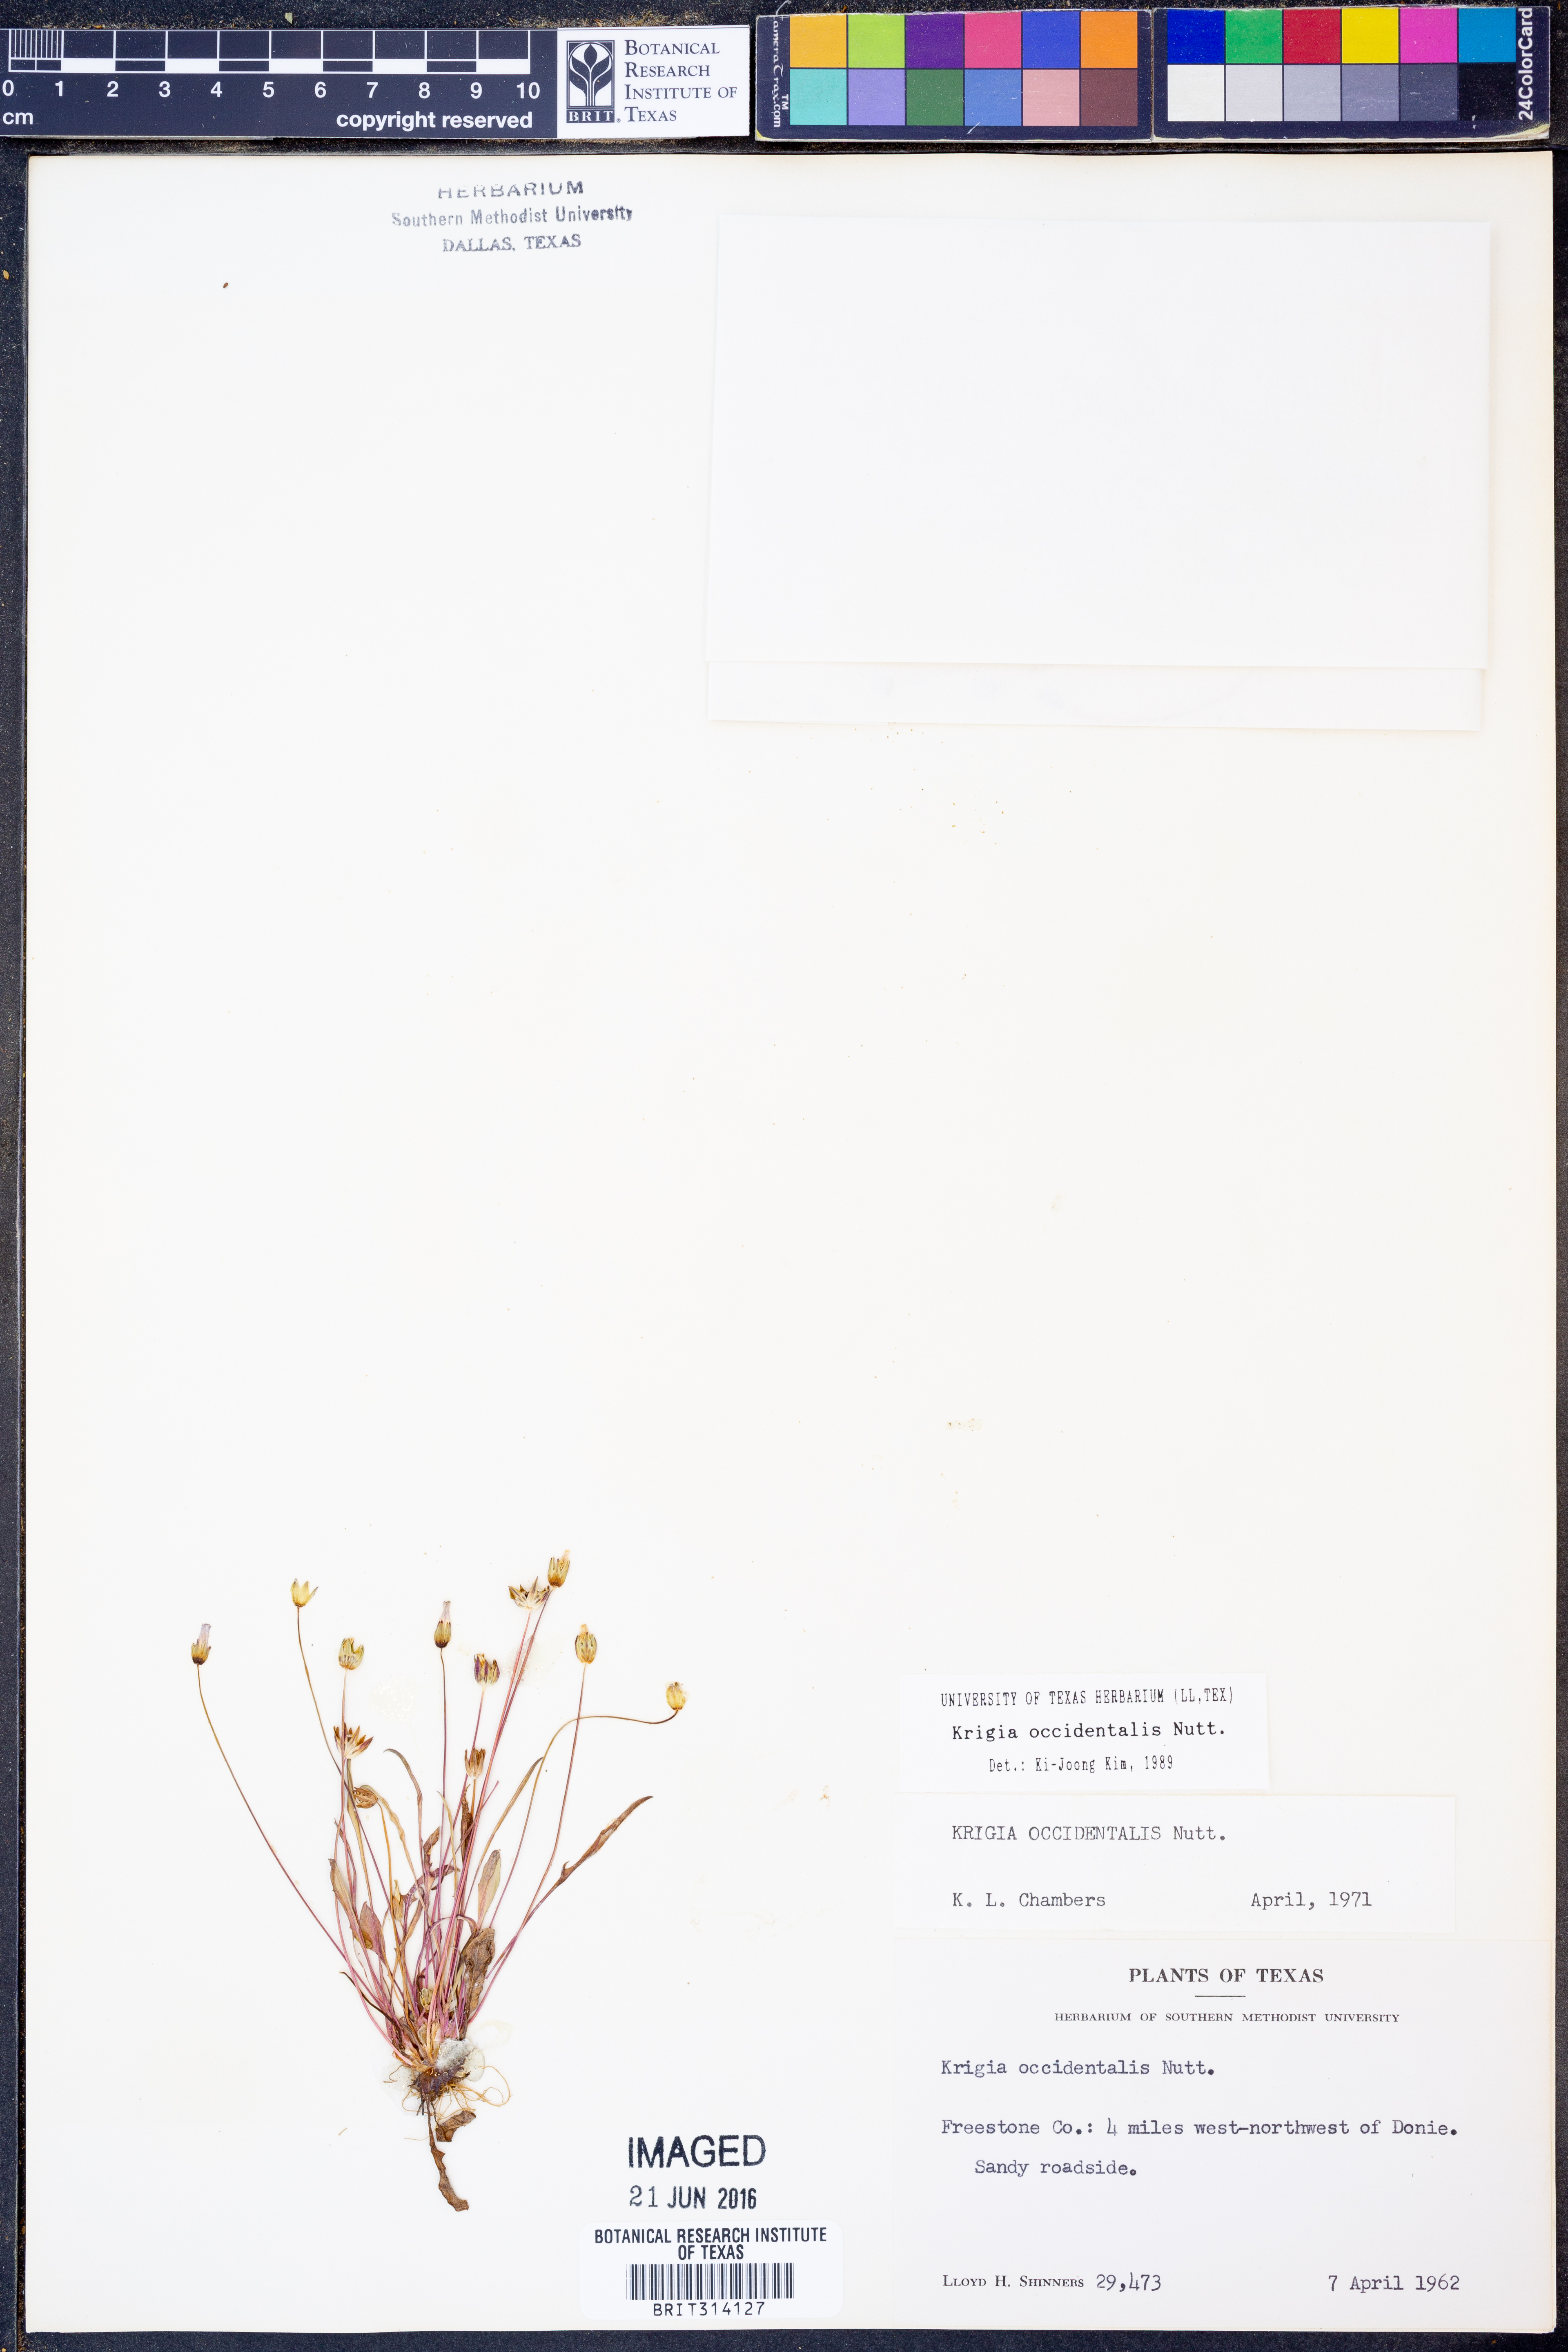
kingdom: Plantae
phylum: Tracheophyta
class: Magnoliopsida
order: Asterales
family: Asteraceae
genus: Krigia
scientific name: Krigia occidentalis
